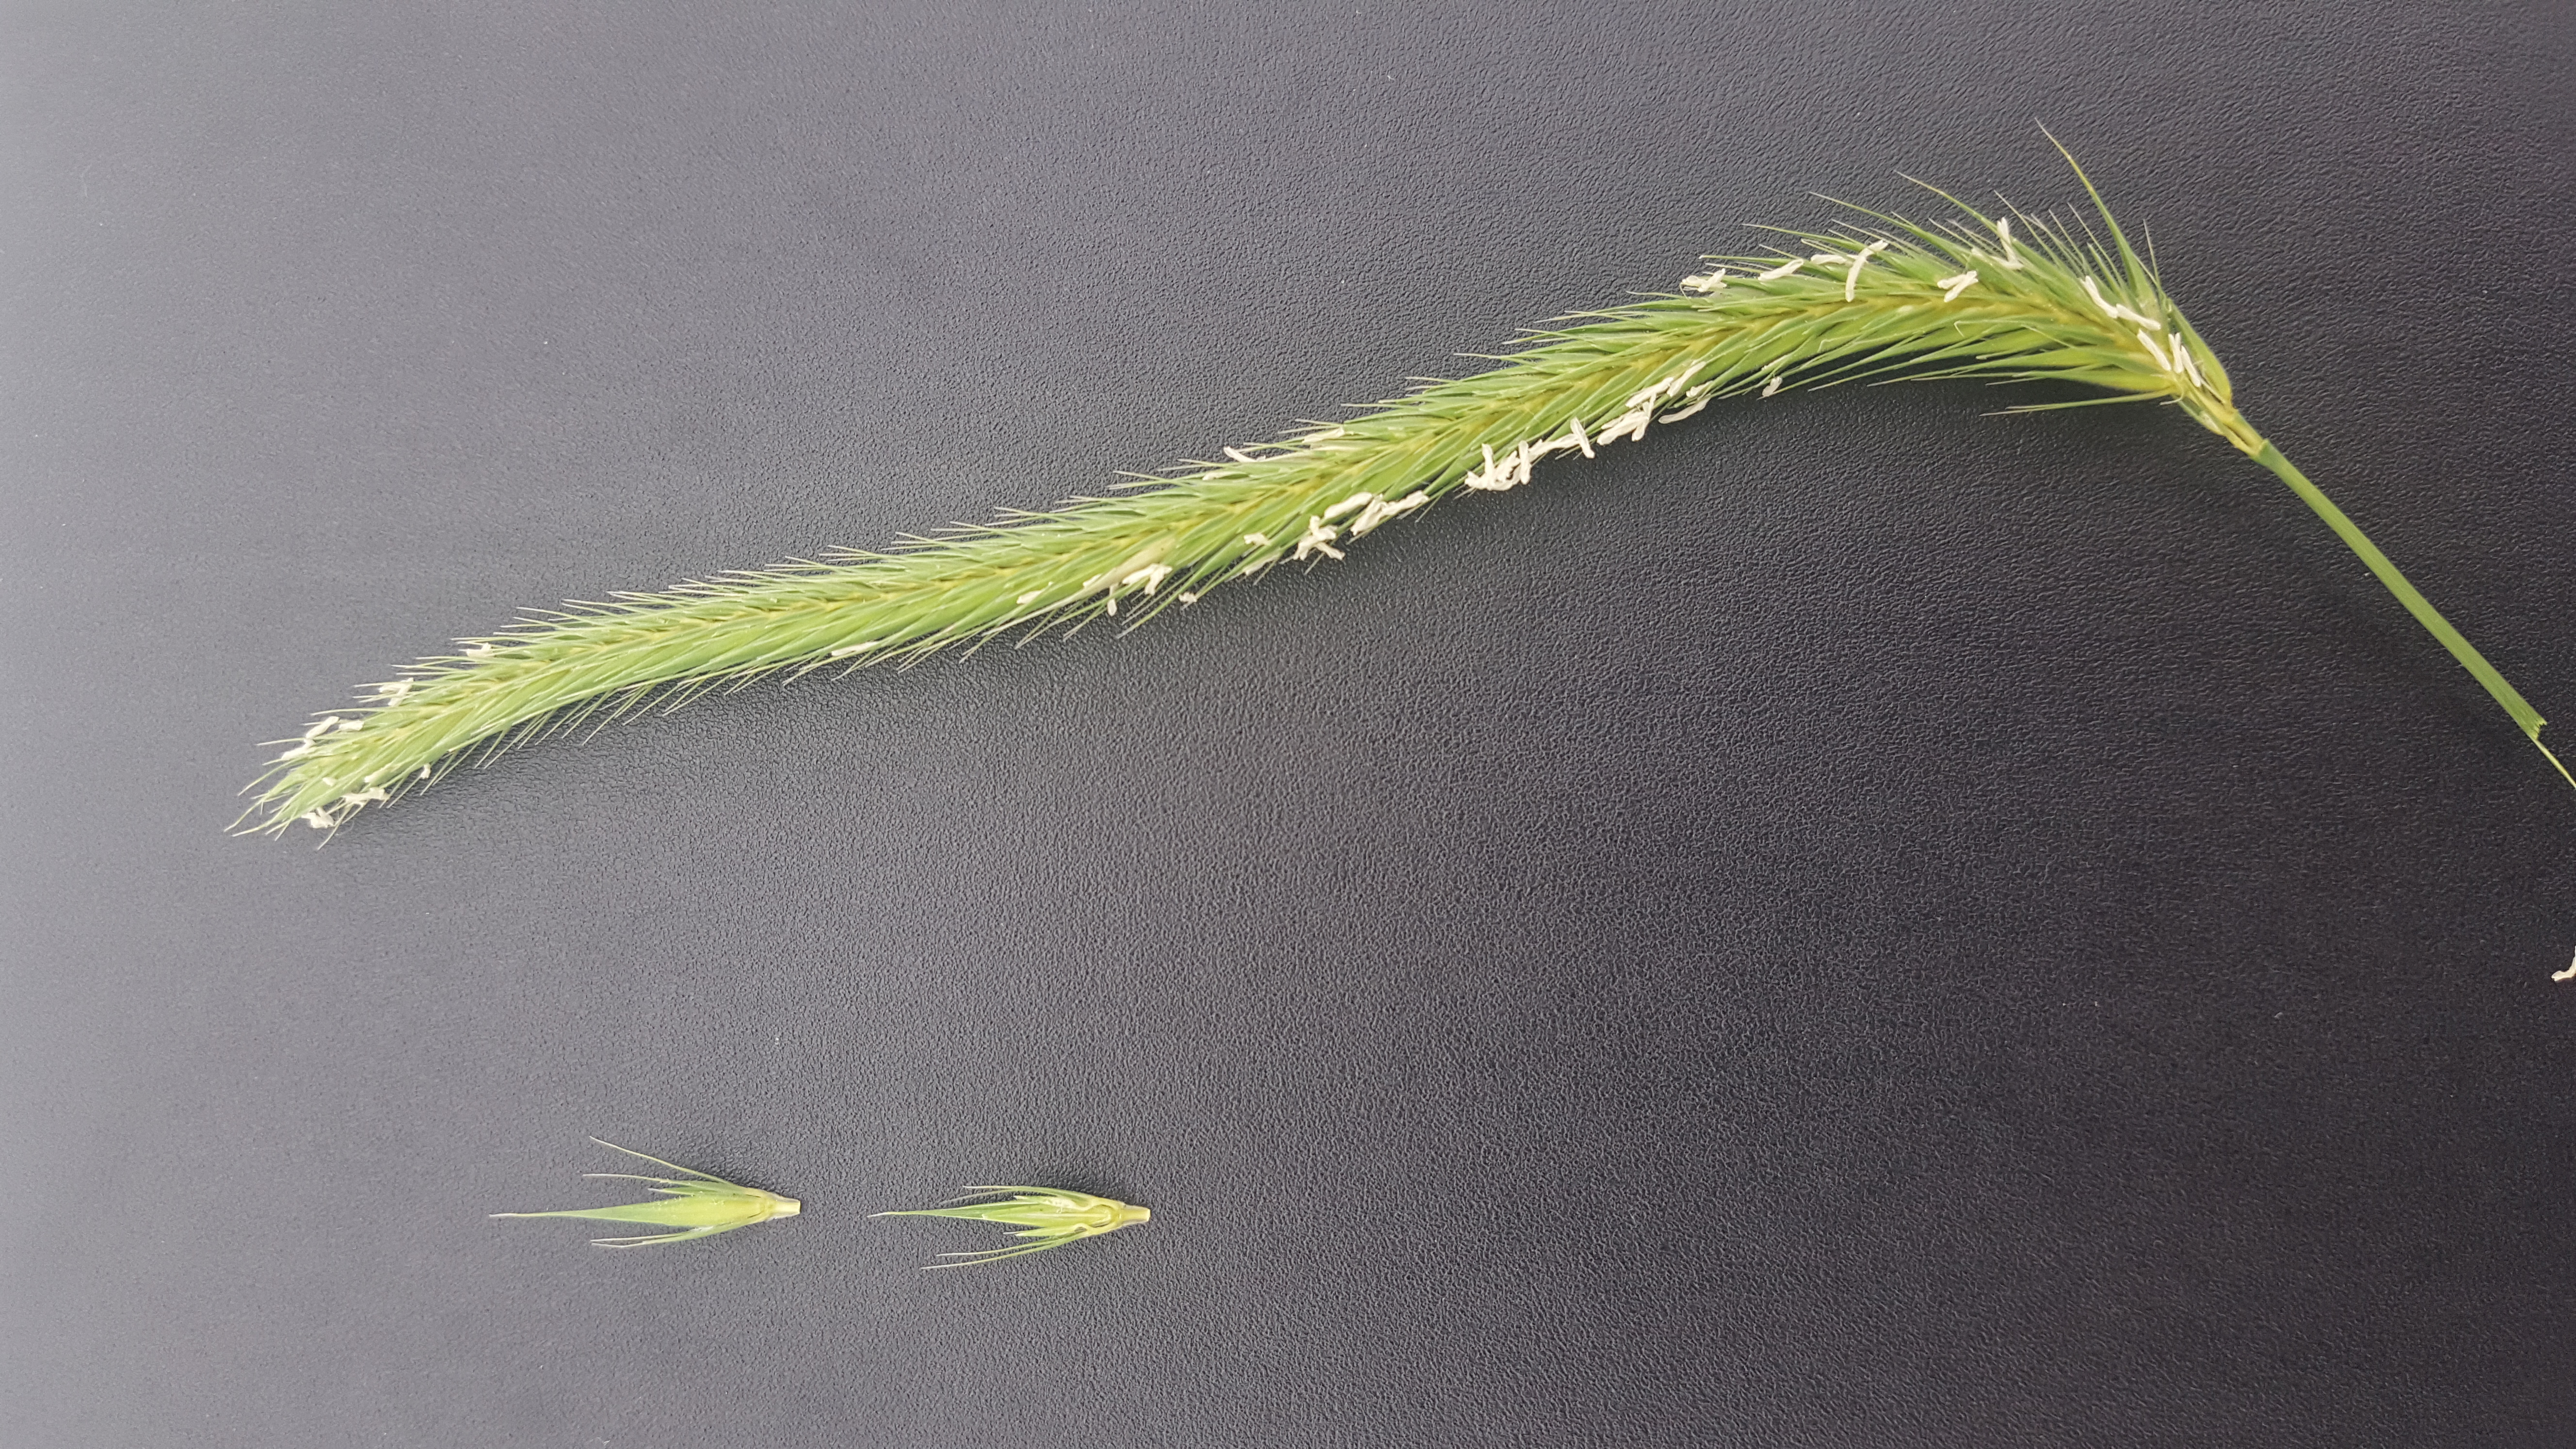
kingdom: Plantae
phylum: Tracheophyta
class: Liliopsida
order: Poales
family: Poaceae
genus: Hordeum
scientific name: Hordeum stenostachys
